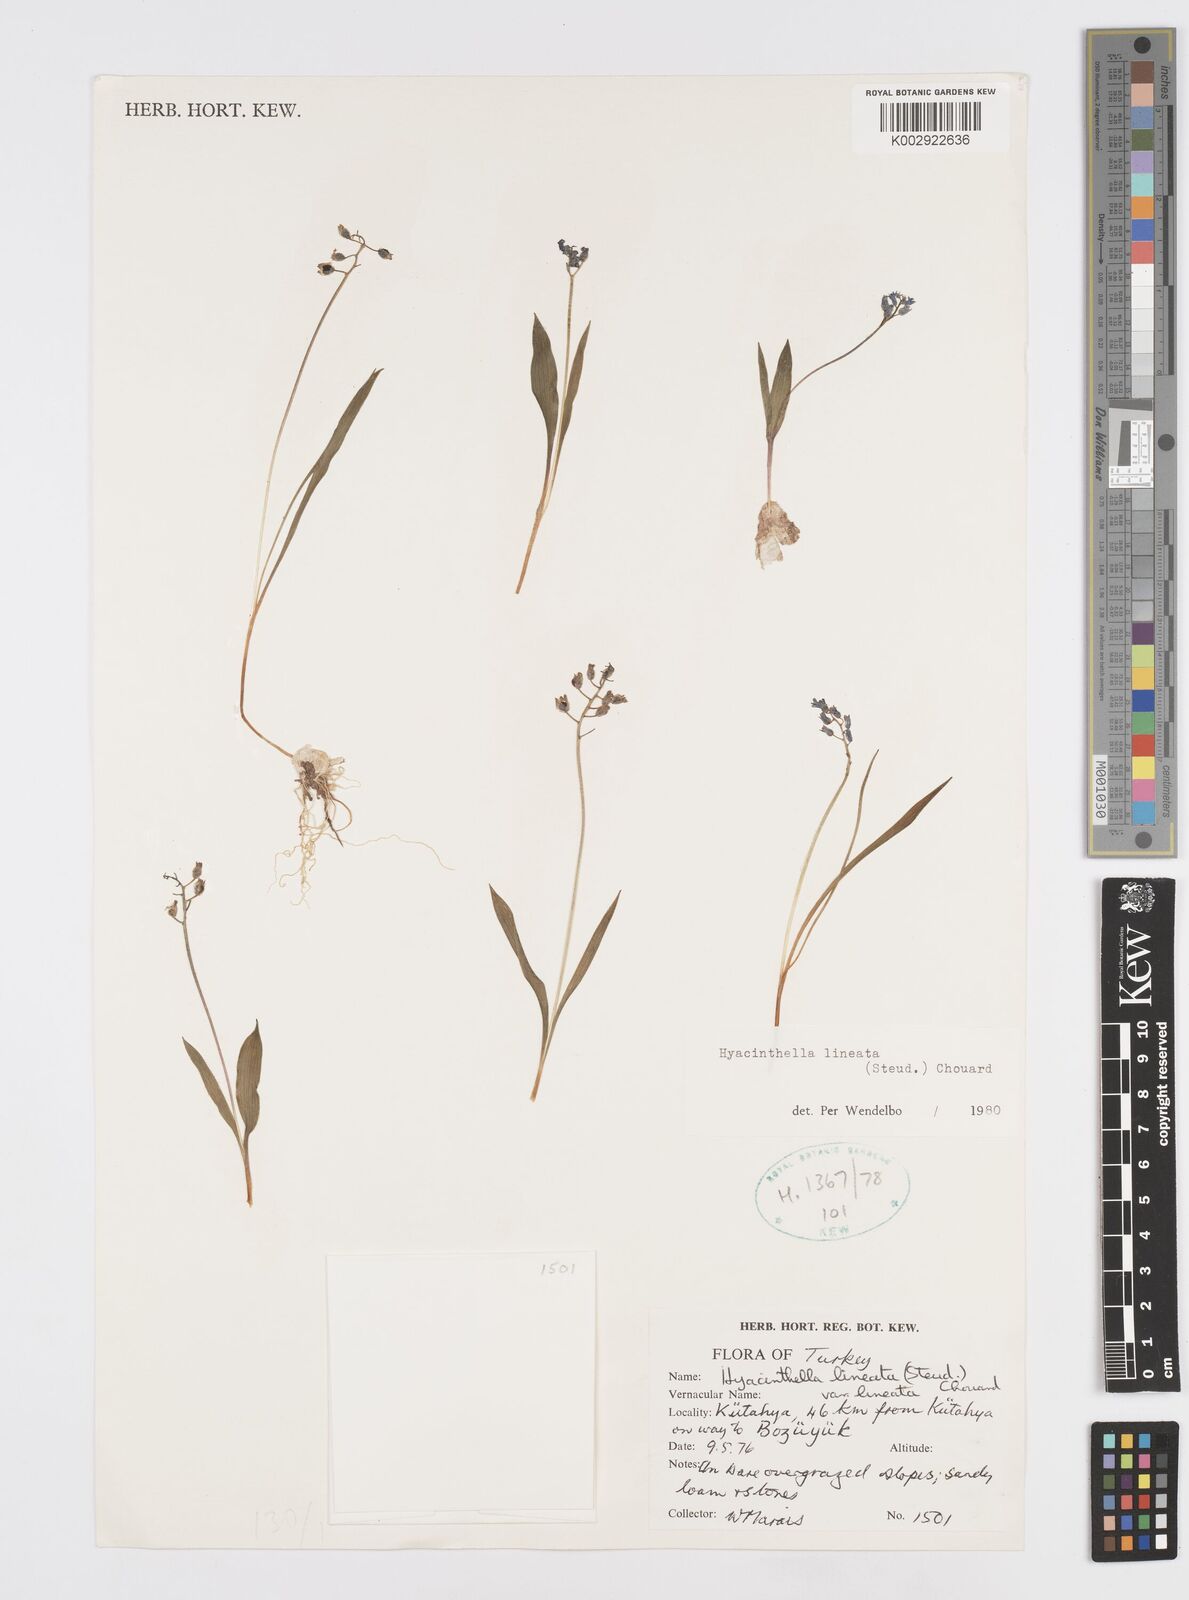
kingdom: Plantae
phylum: Tracheophyta
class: Liliopsida
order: Asparagales
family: Asparagaceae
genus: Hyacinthella
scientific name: Hyacinthella lineata
